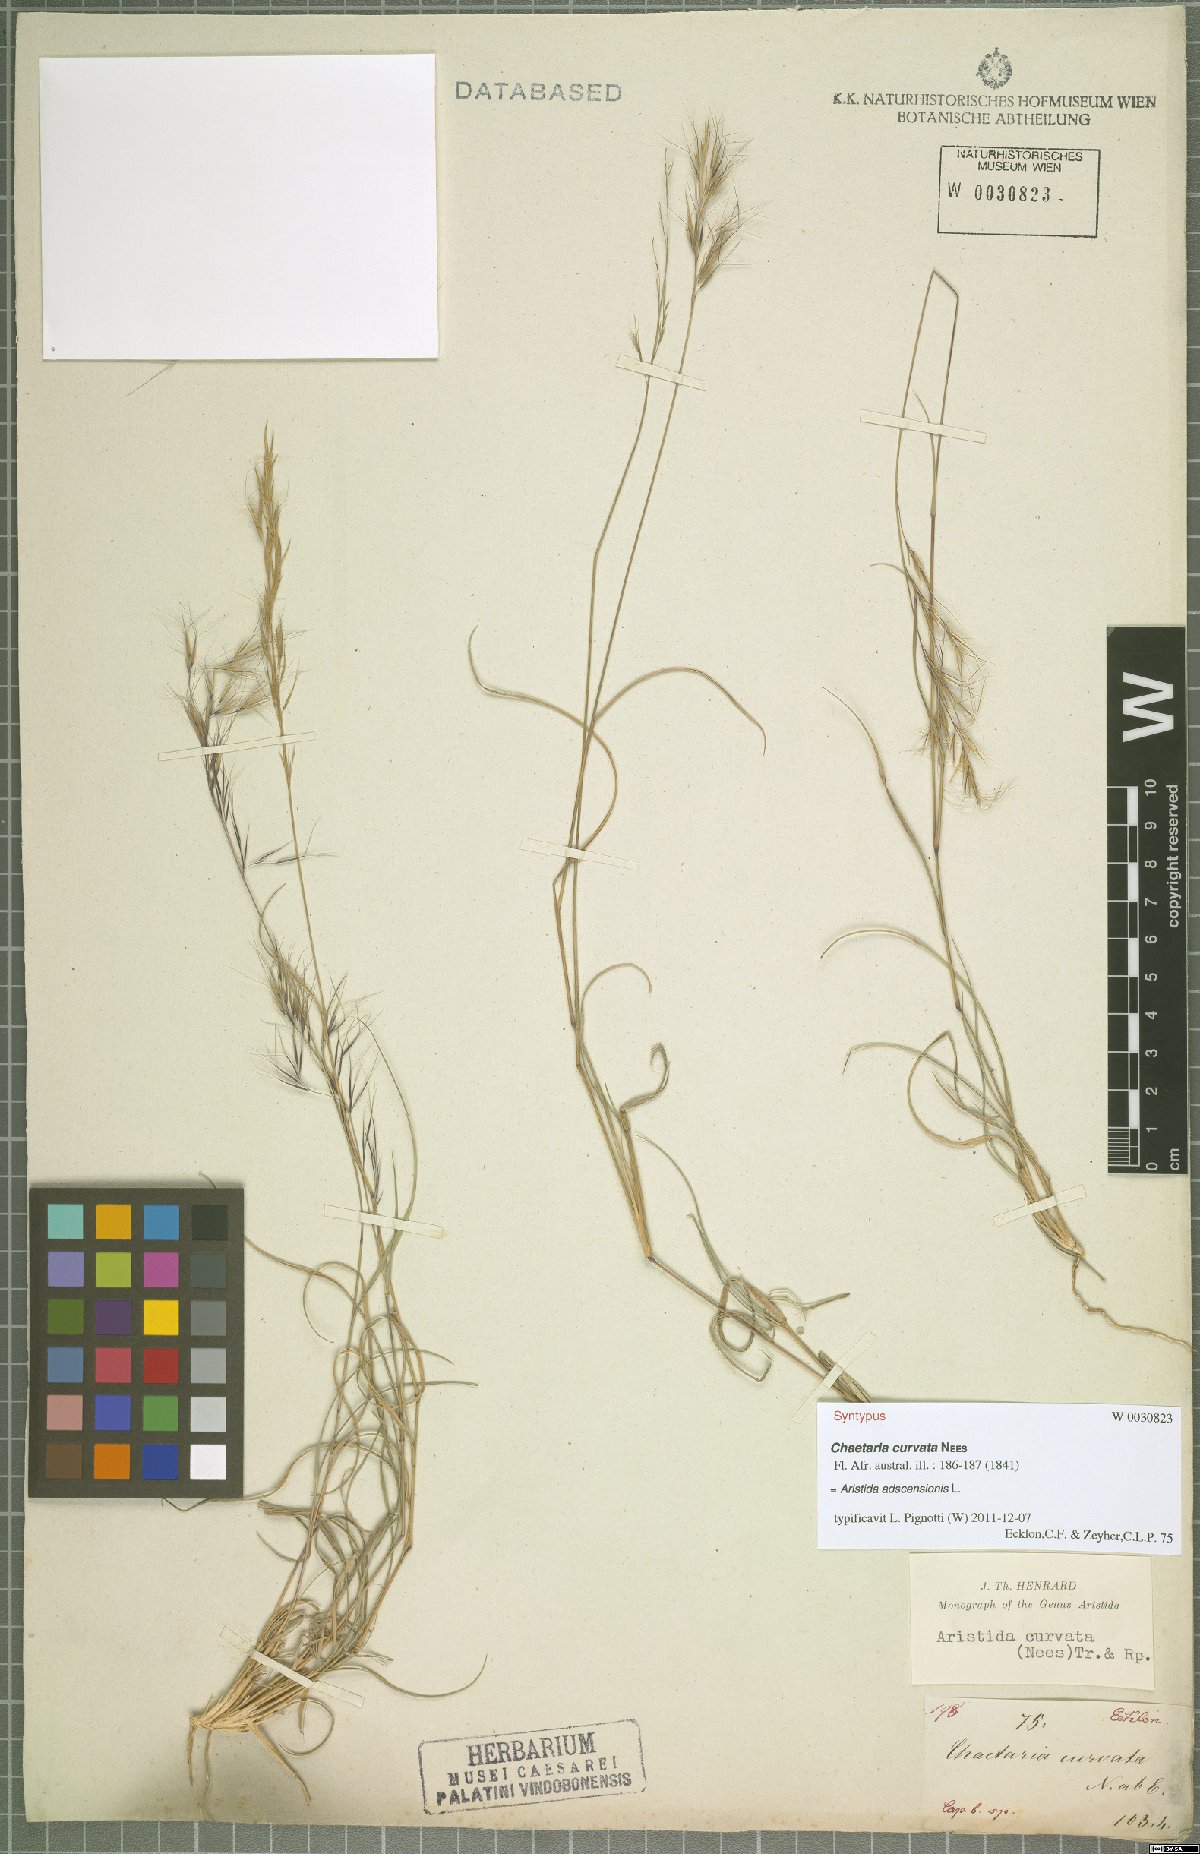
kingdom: Plantae
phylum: Tracheophyta
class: Liliopsida
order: Poales
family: Poaceae
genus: Aristida
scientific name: Aristida adscensionis
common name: Sixweeks threeawn
